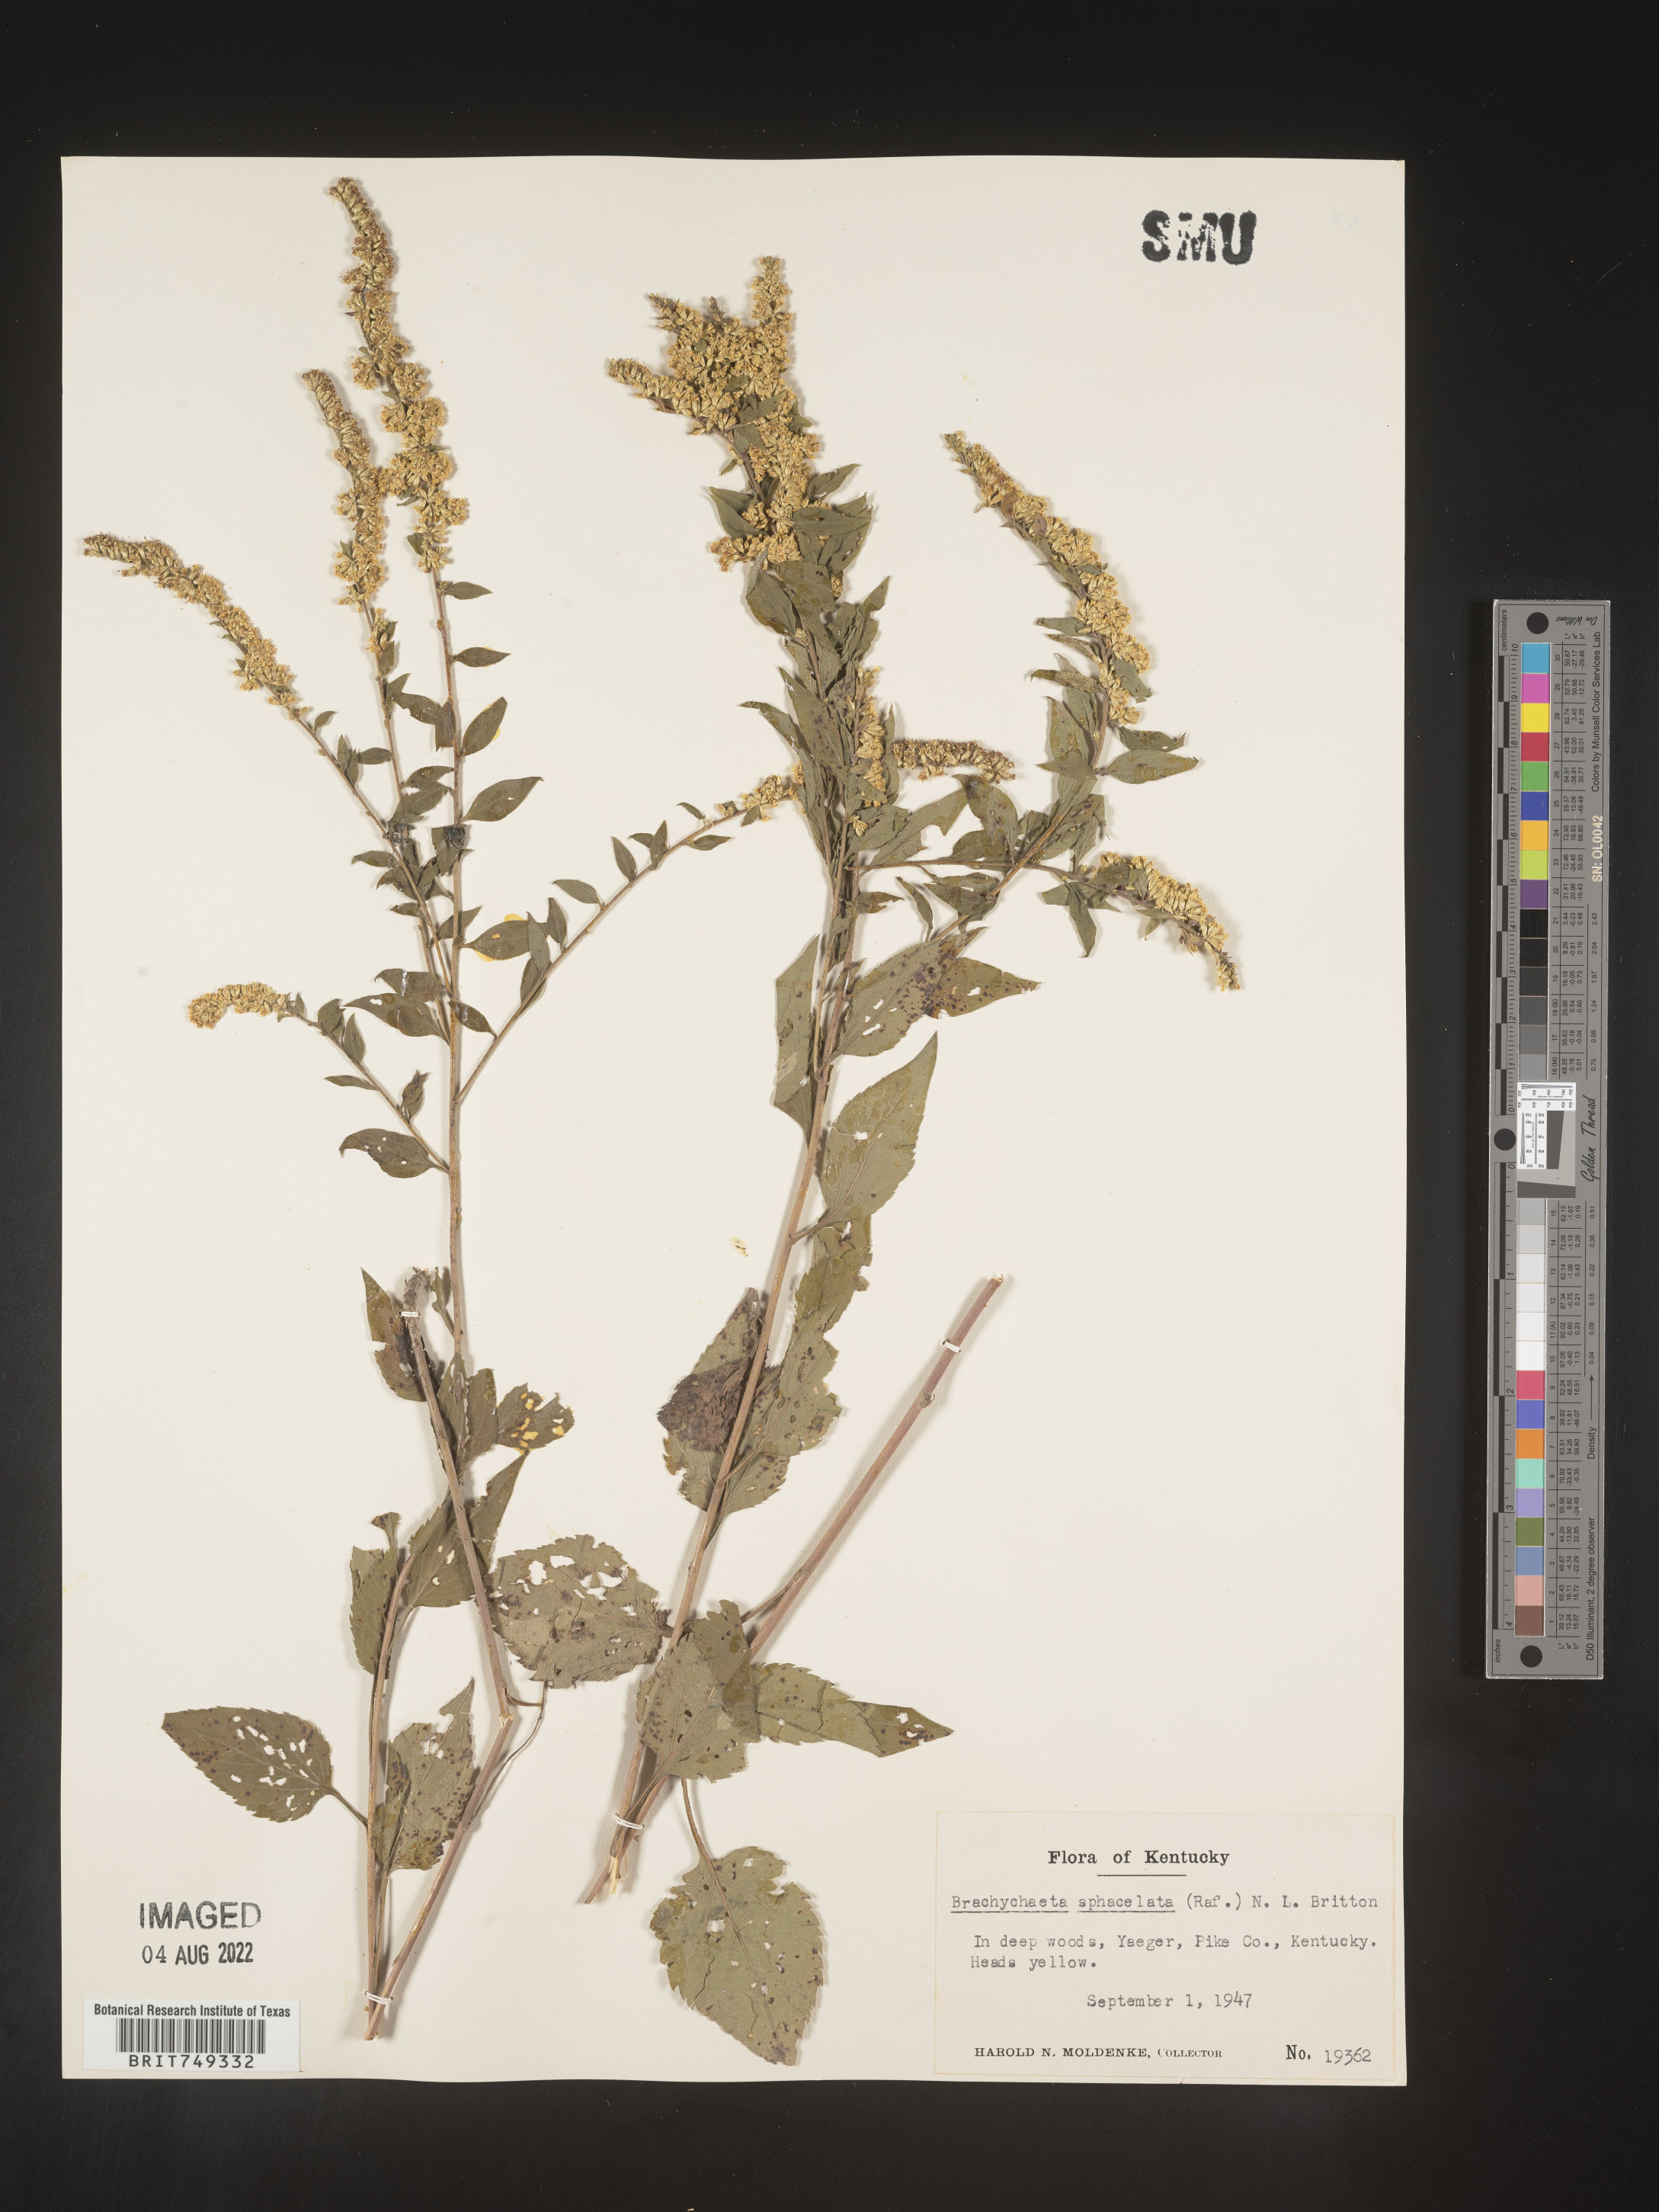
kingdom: Plantae
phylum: Tracheophyta
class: Magnoliopsida
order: Asterales
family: Asteraceae
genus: Solidago
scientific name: Solidago sphacelata
